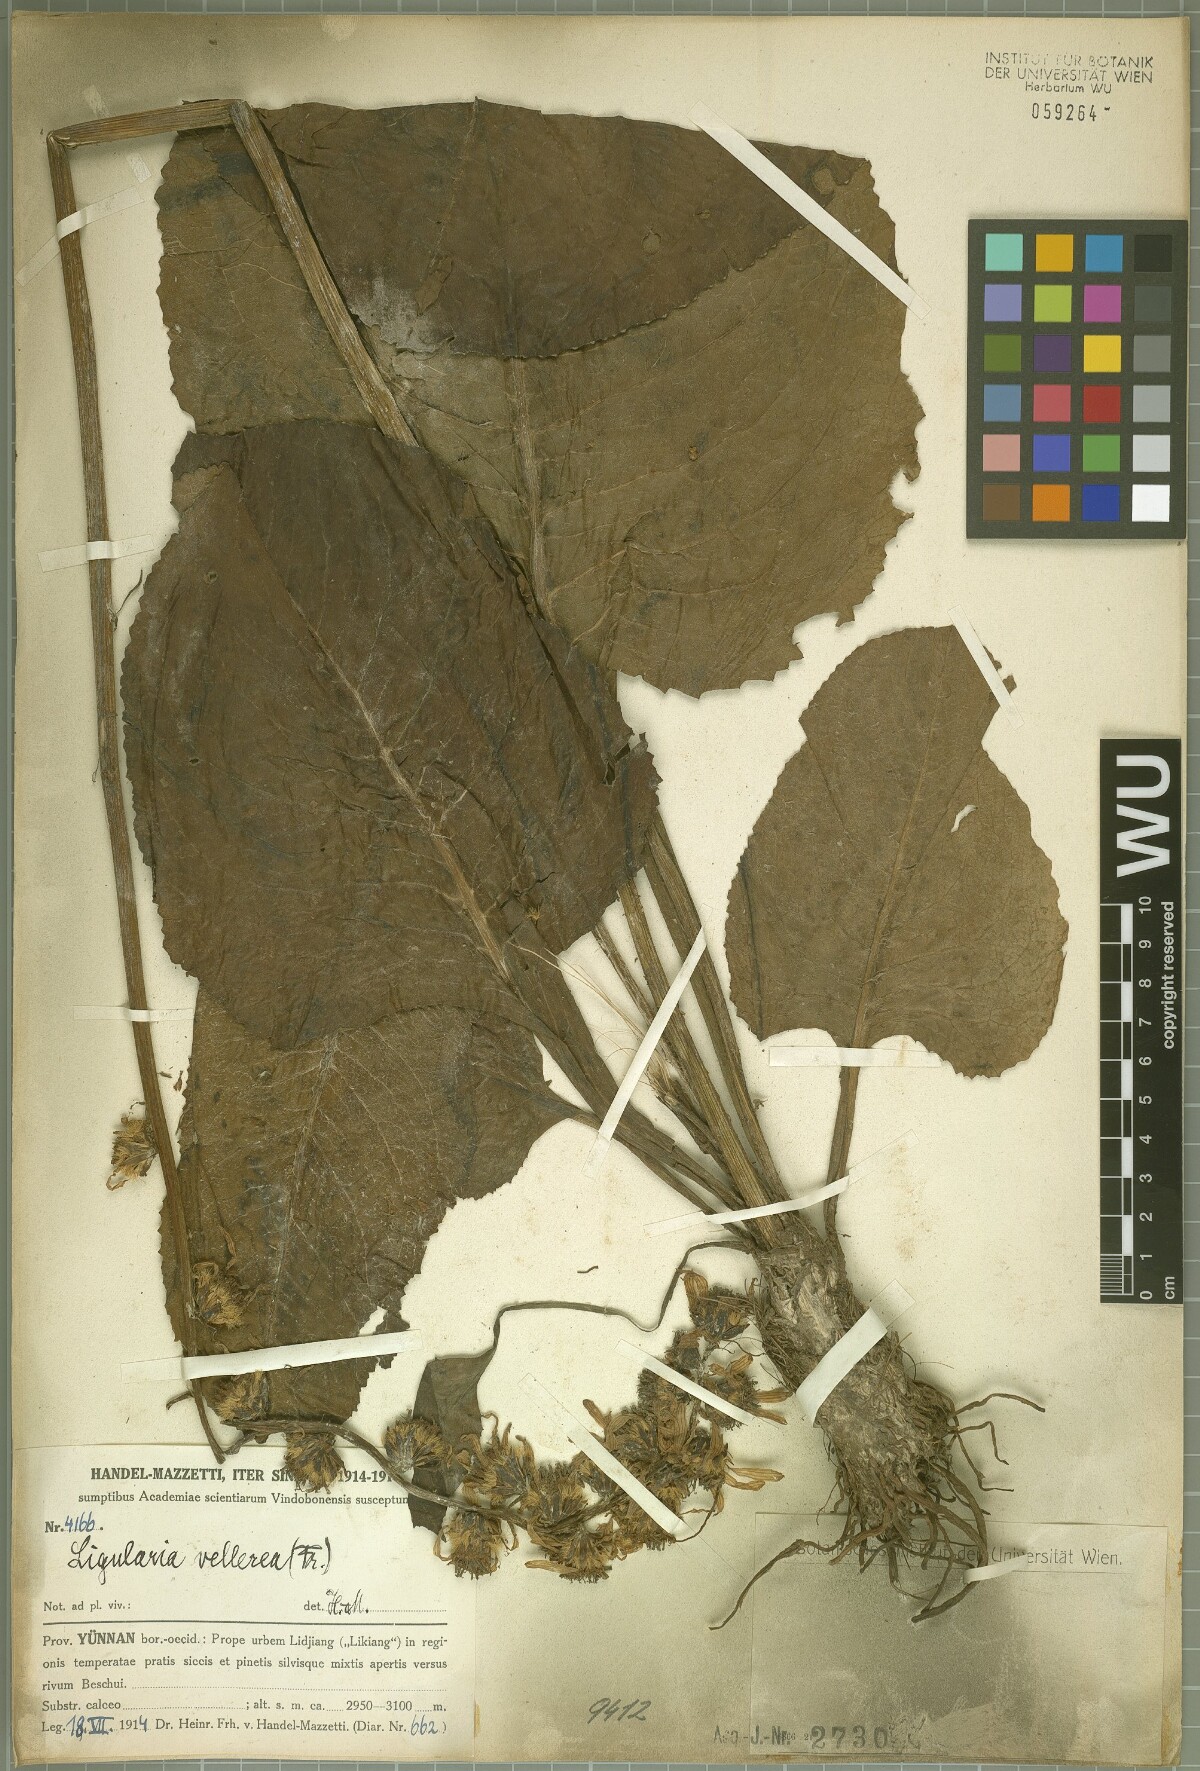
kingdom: Plantae
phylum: Tracheophyta
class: Magnoliopsida
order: Asterales
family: Asteraceae
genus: Ligularia
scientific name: Ligularia vellerea
